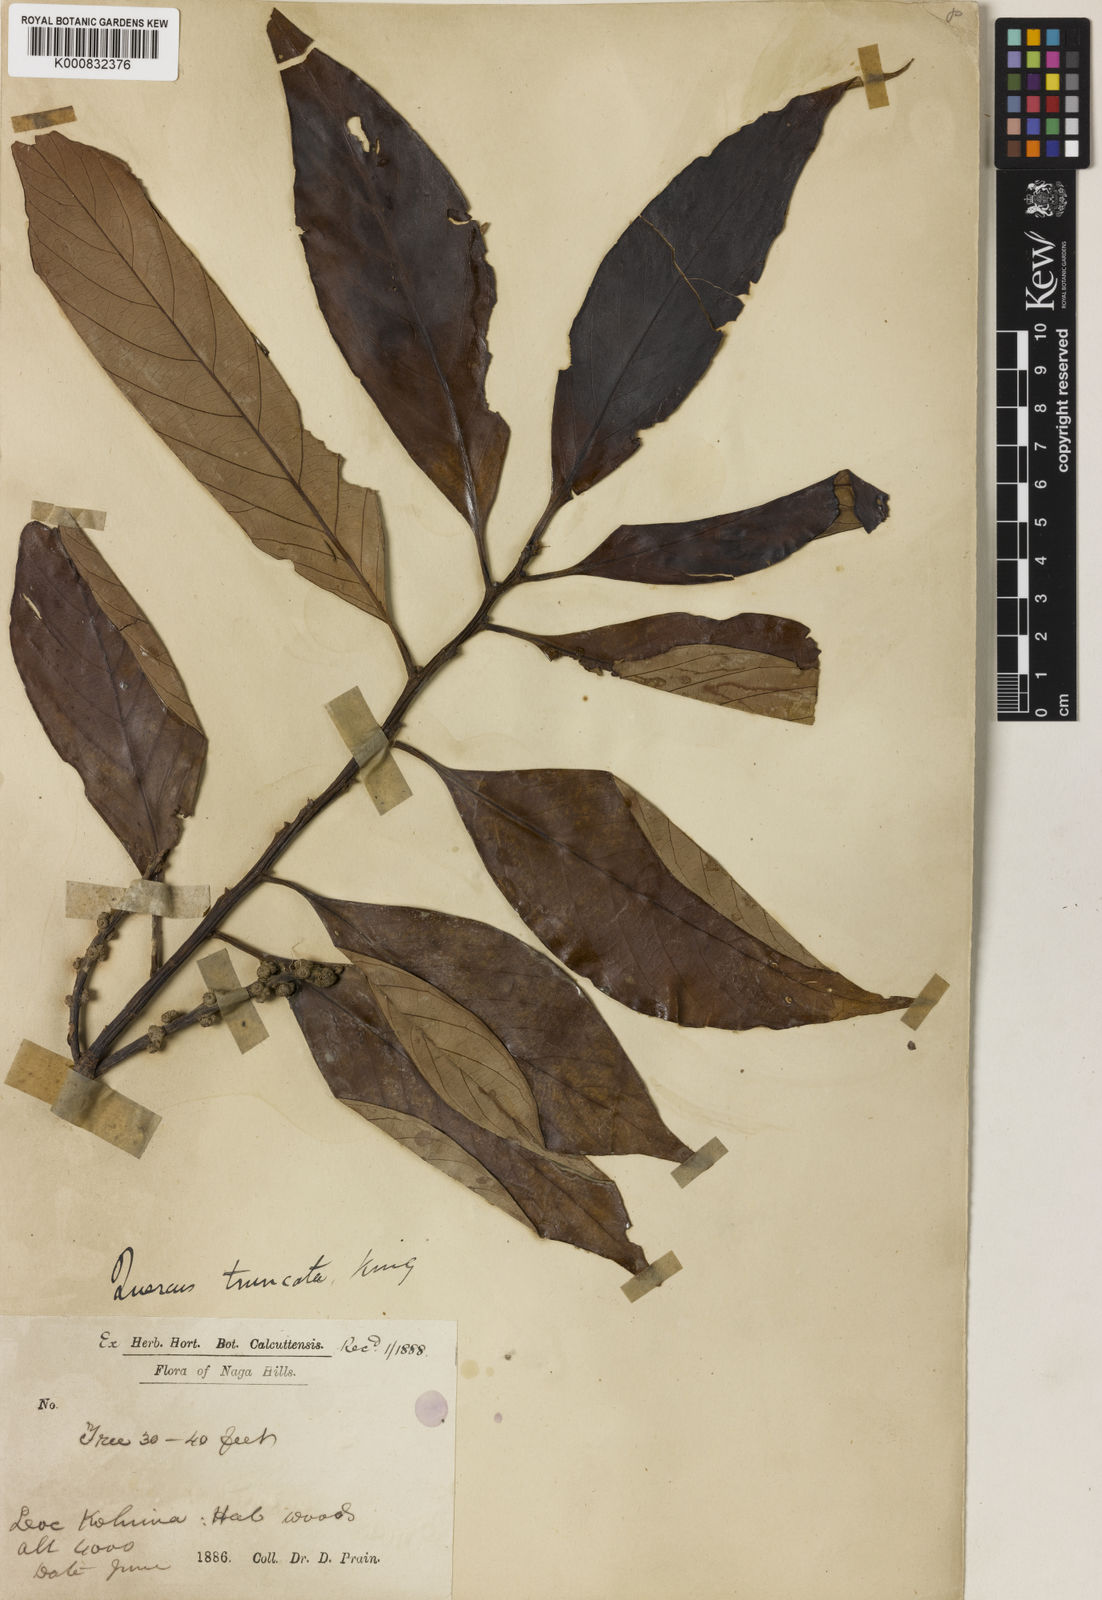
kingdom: Plantae
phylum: Tracheophyta
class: Magnoliopsida
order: Fagales
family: Fagaceae
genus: Lithocarpus
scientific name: Lithocarpus truncatus
